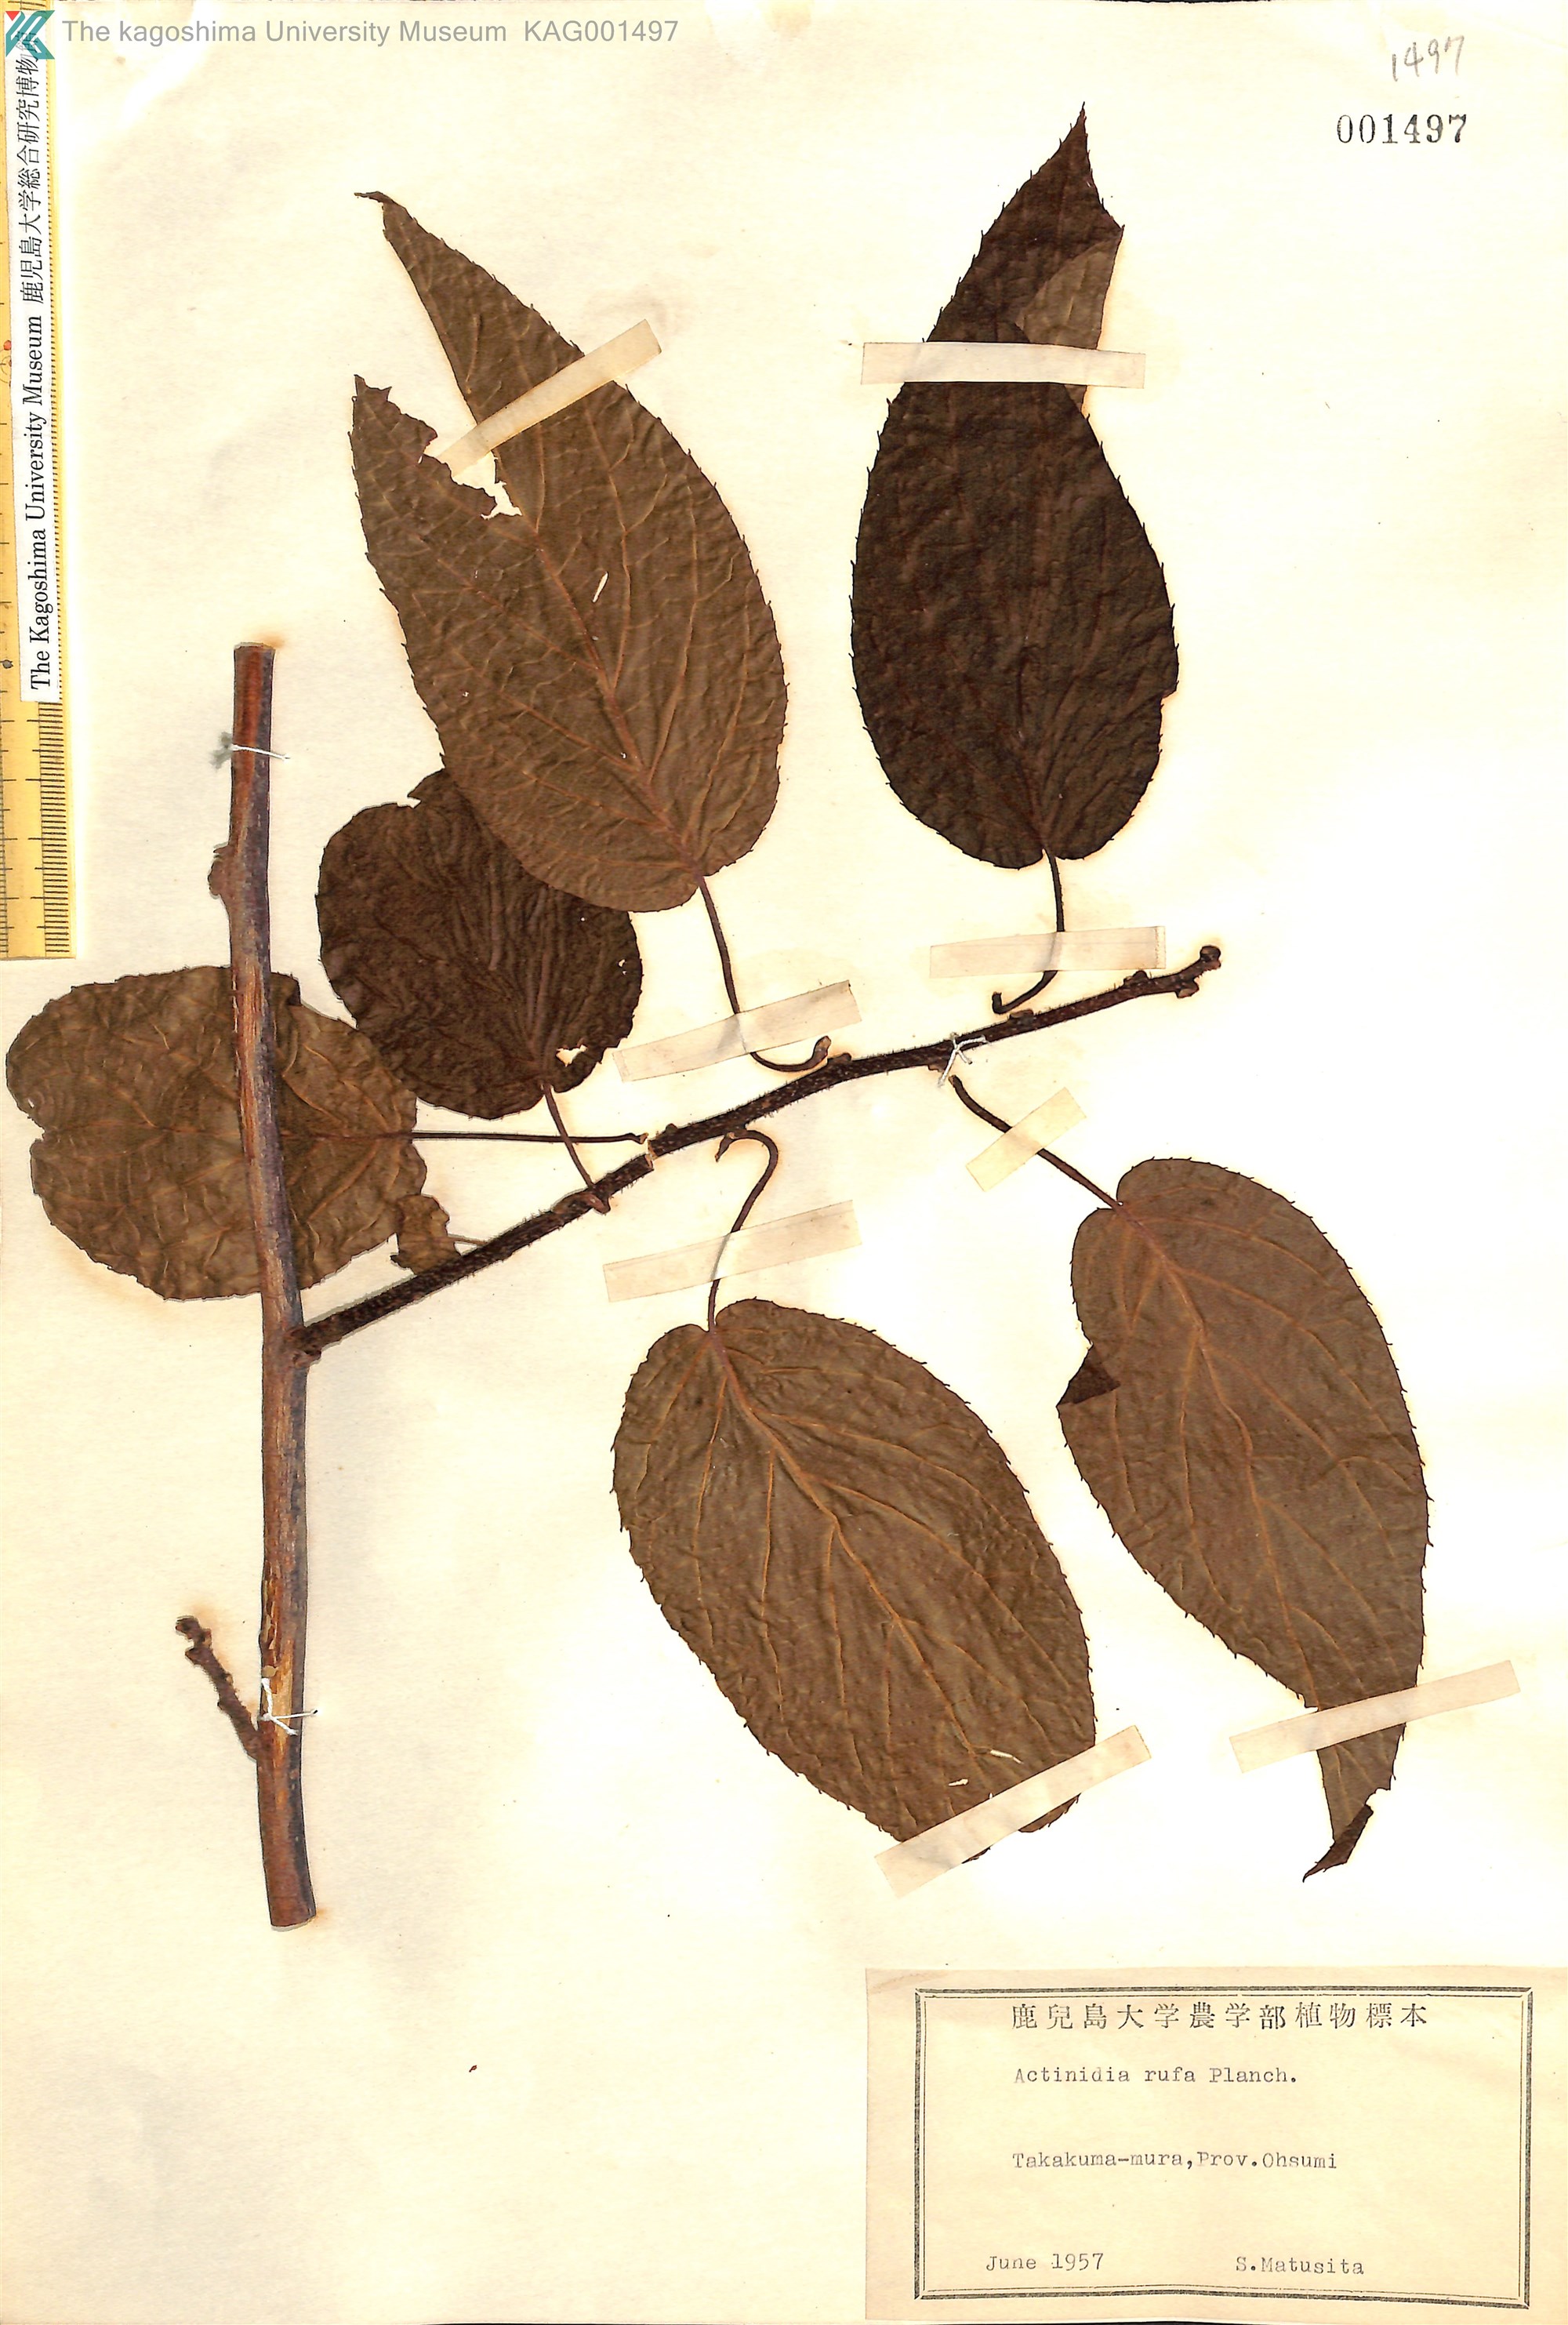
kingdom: Plantae
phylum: Tracheophyta
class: Magnoliopsida
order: Ericales
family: Actinidiaceae
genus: Actinidia
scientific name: Actinidia rufa
